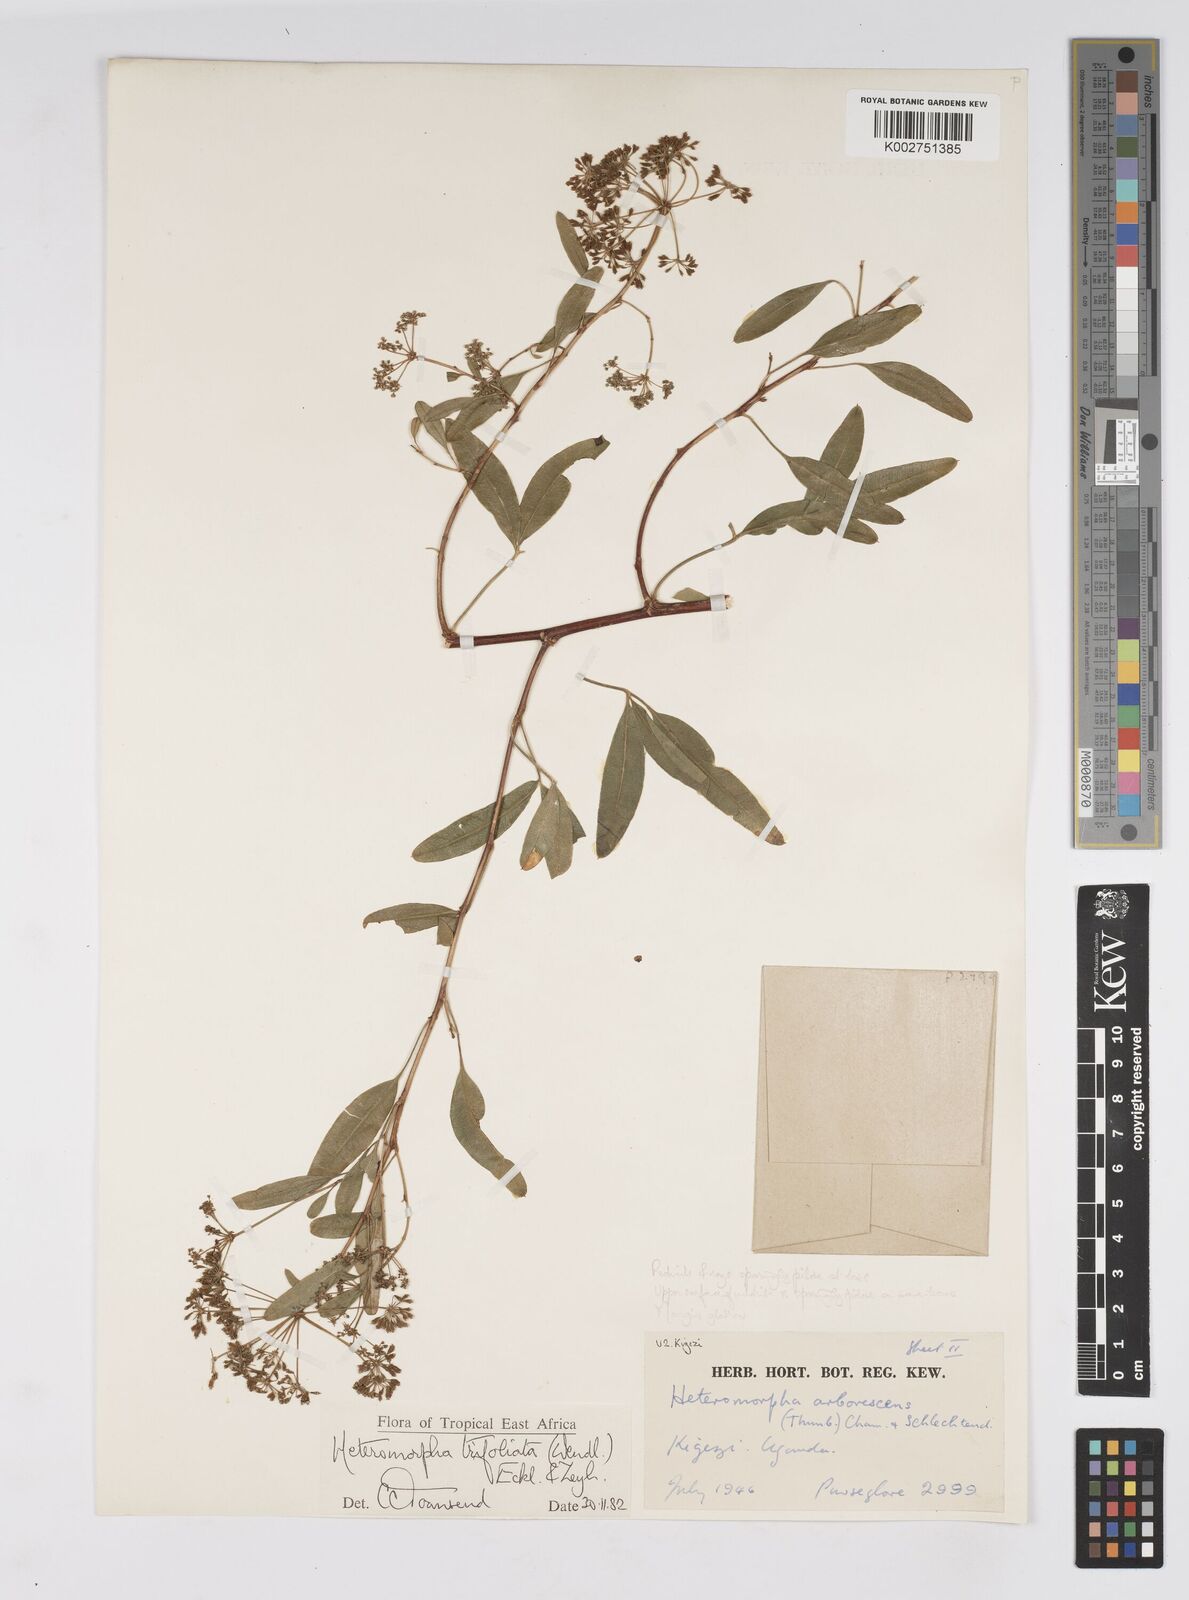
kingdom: Plantae
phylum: Tracheophyta
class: Magnoliopsida
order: Apiales
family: Apiaceae
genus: Heteromorpha
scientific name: Heteromorpha arborescens
